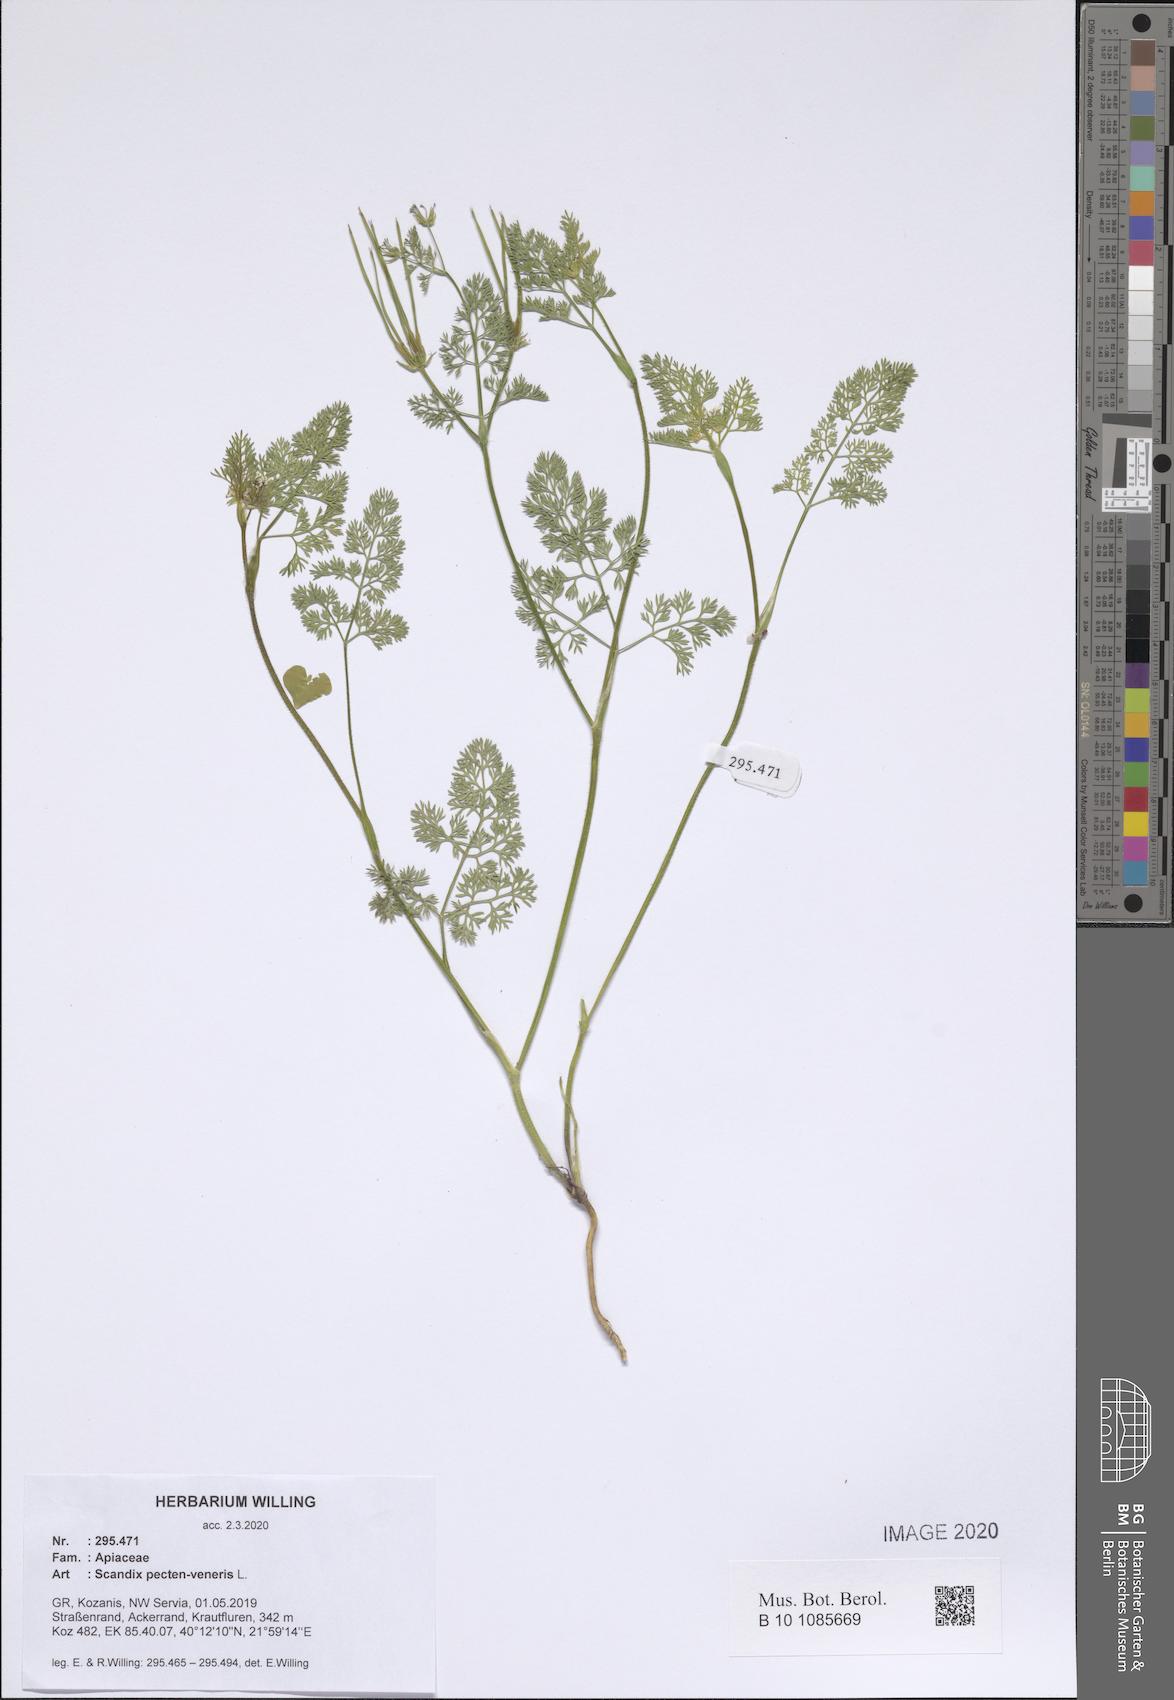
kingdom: Plantae
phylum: Tracheophyta
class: Magnoliopsida
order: Apiales
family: Apiaceae
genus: Scandix
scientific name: Scandix pecten-veneris
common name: Shepherd's-needle
